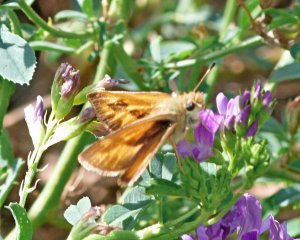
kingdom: Animalia
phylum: Arthropoda
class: Insecta
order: Lepidoptera
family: Hesperiidae
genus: Ochlodes
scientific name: Ochlodes sylvanoides
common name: Woodland Skipper
